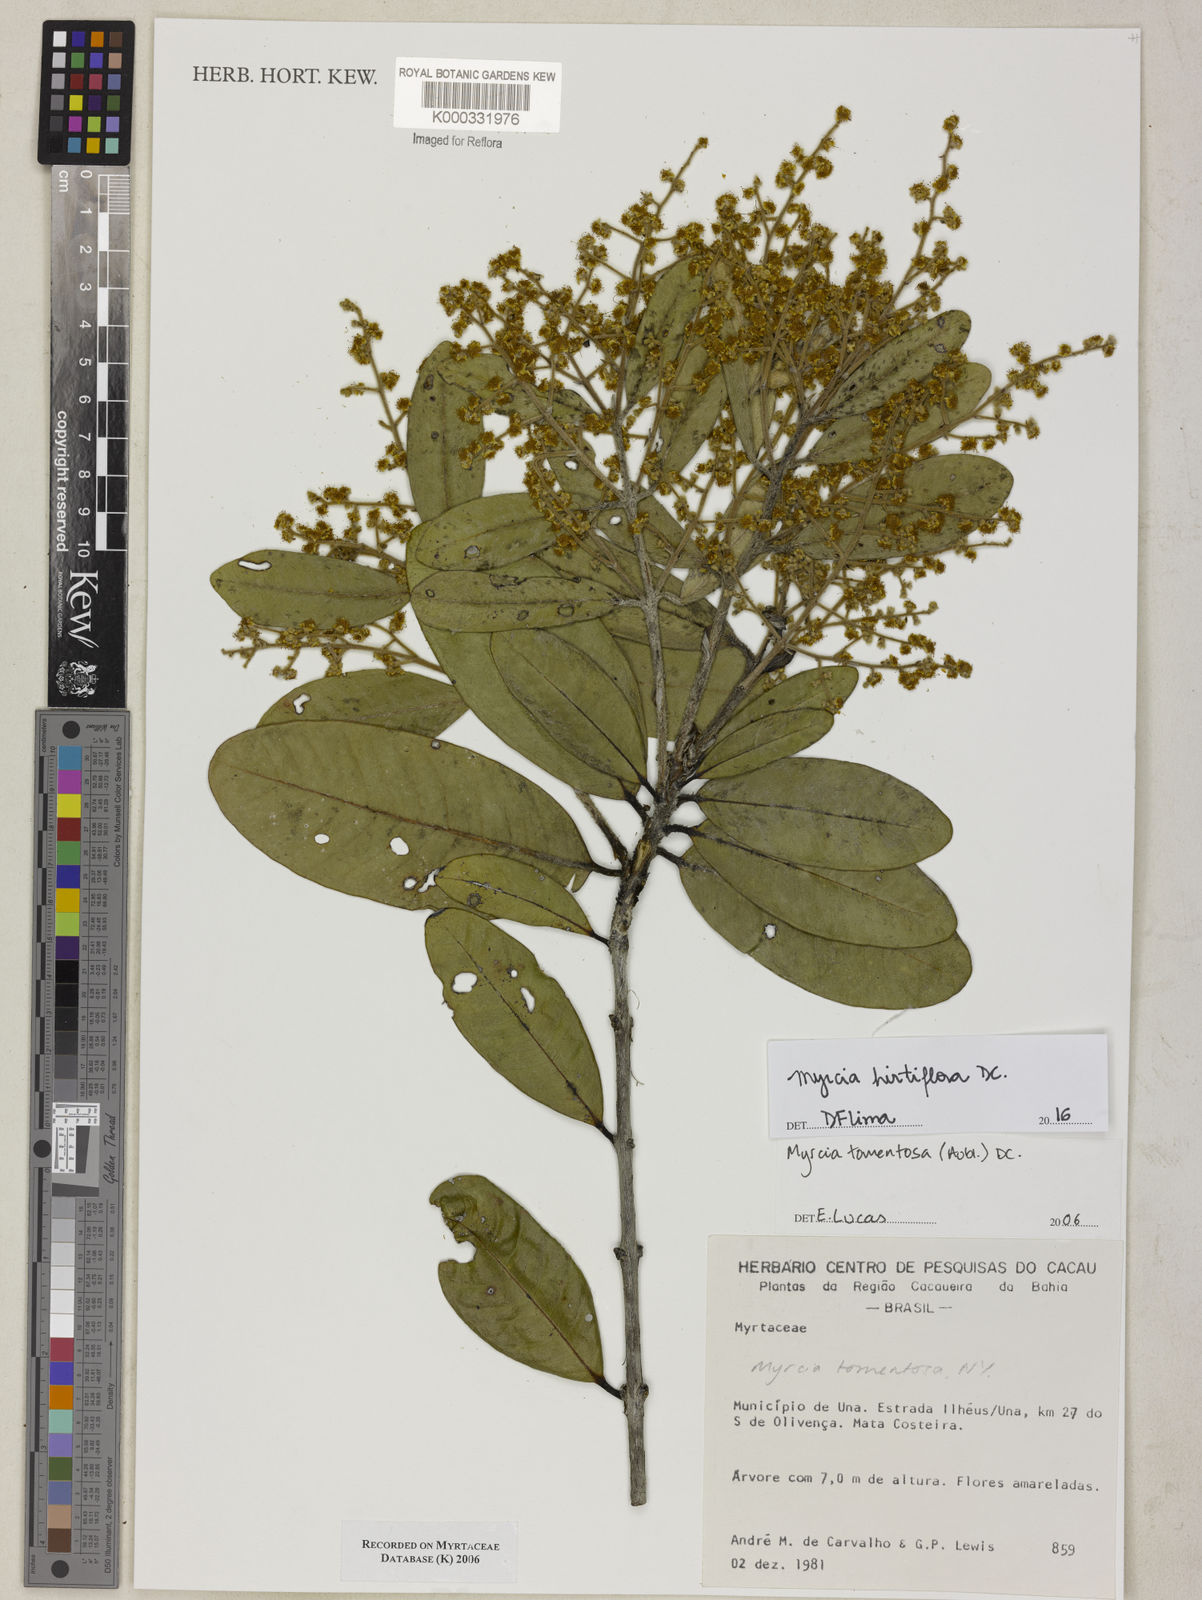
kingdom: Plantae
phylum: Tracheophyta
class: Magnoliopsida
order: Myrtales
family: Myrtaceae
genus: Myrcia
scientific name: Myrcia tomentosa
